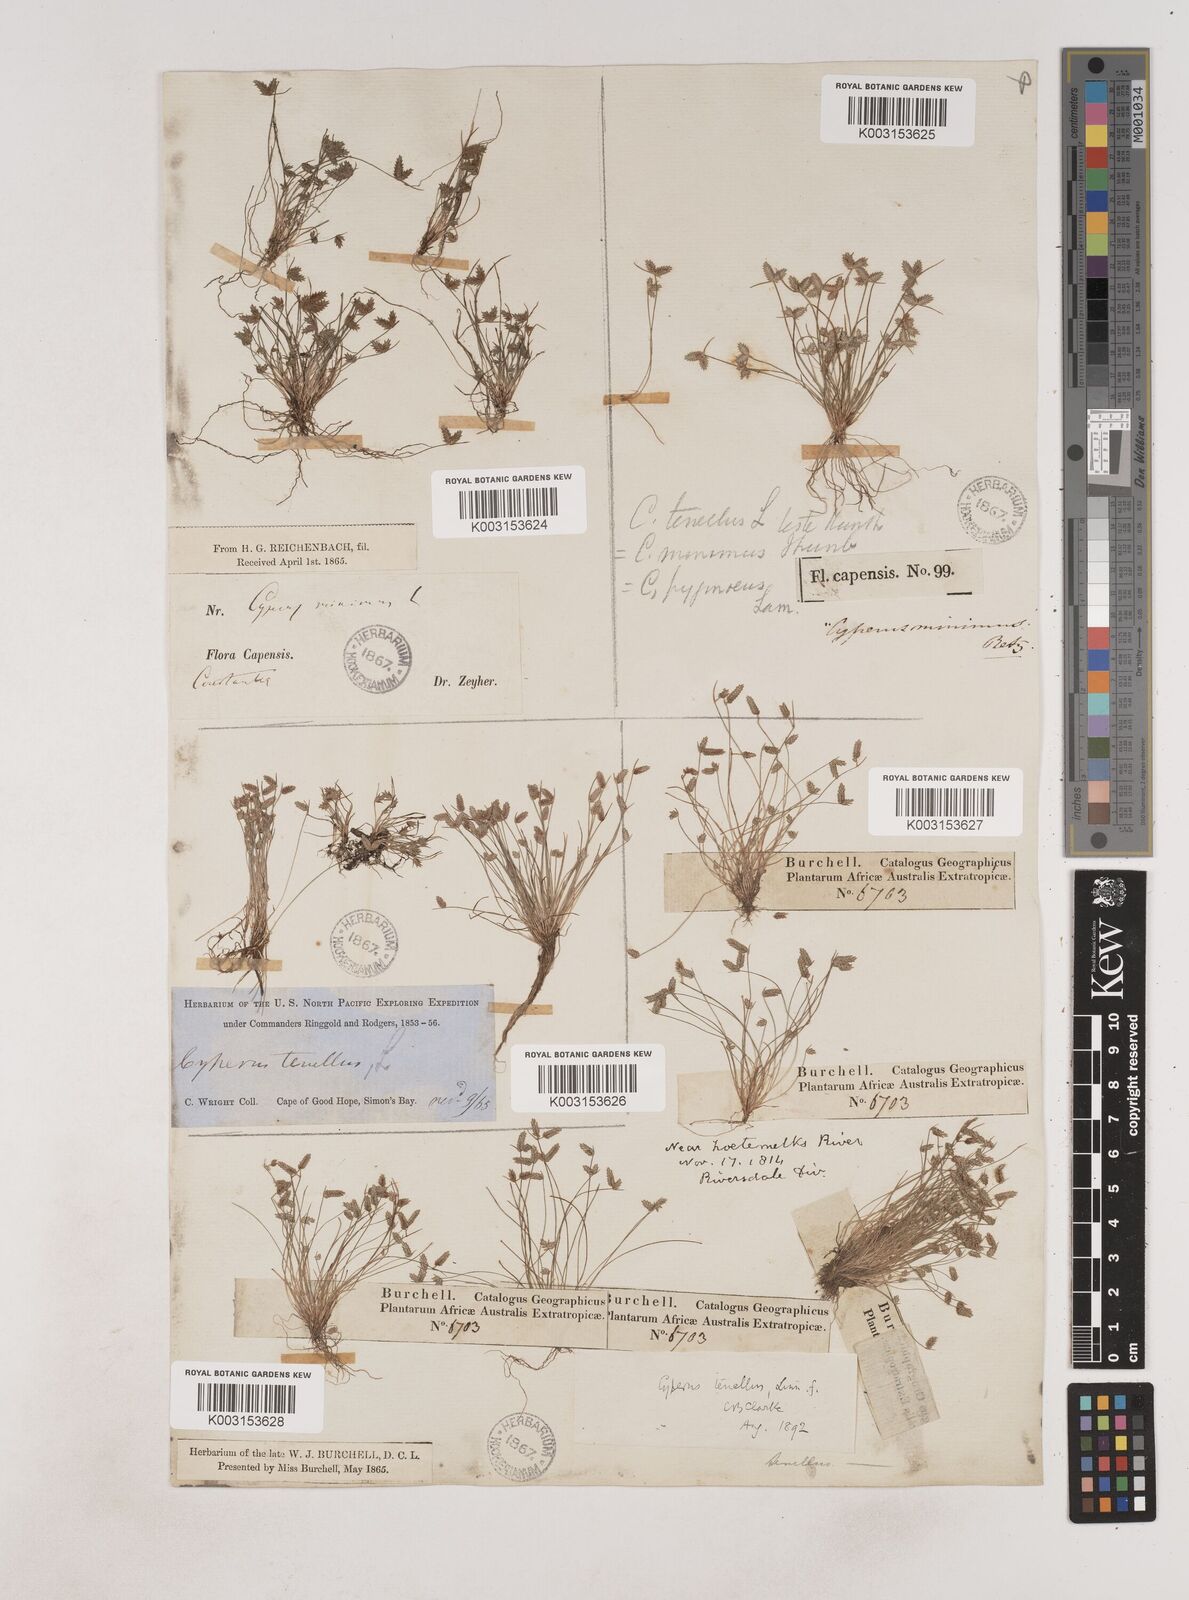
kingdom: Plantae
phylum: Tracheophyta
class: Liliopsida
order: Poales
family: Cyperaceae
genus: Isolepis
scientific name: Isolepis levynsiana
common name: Sedge
